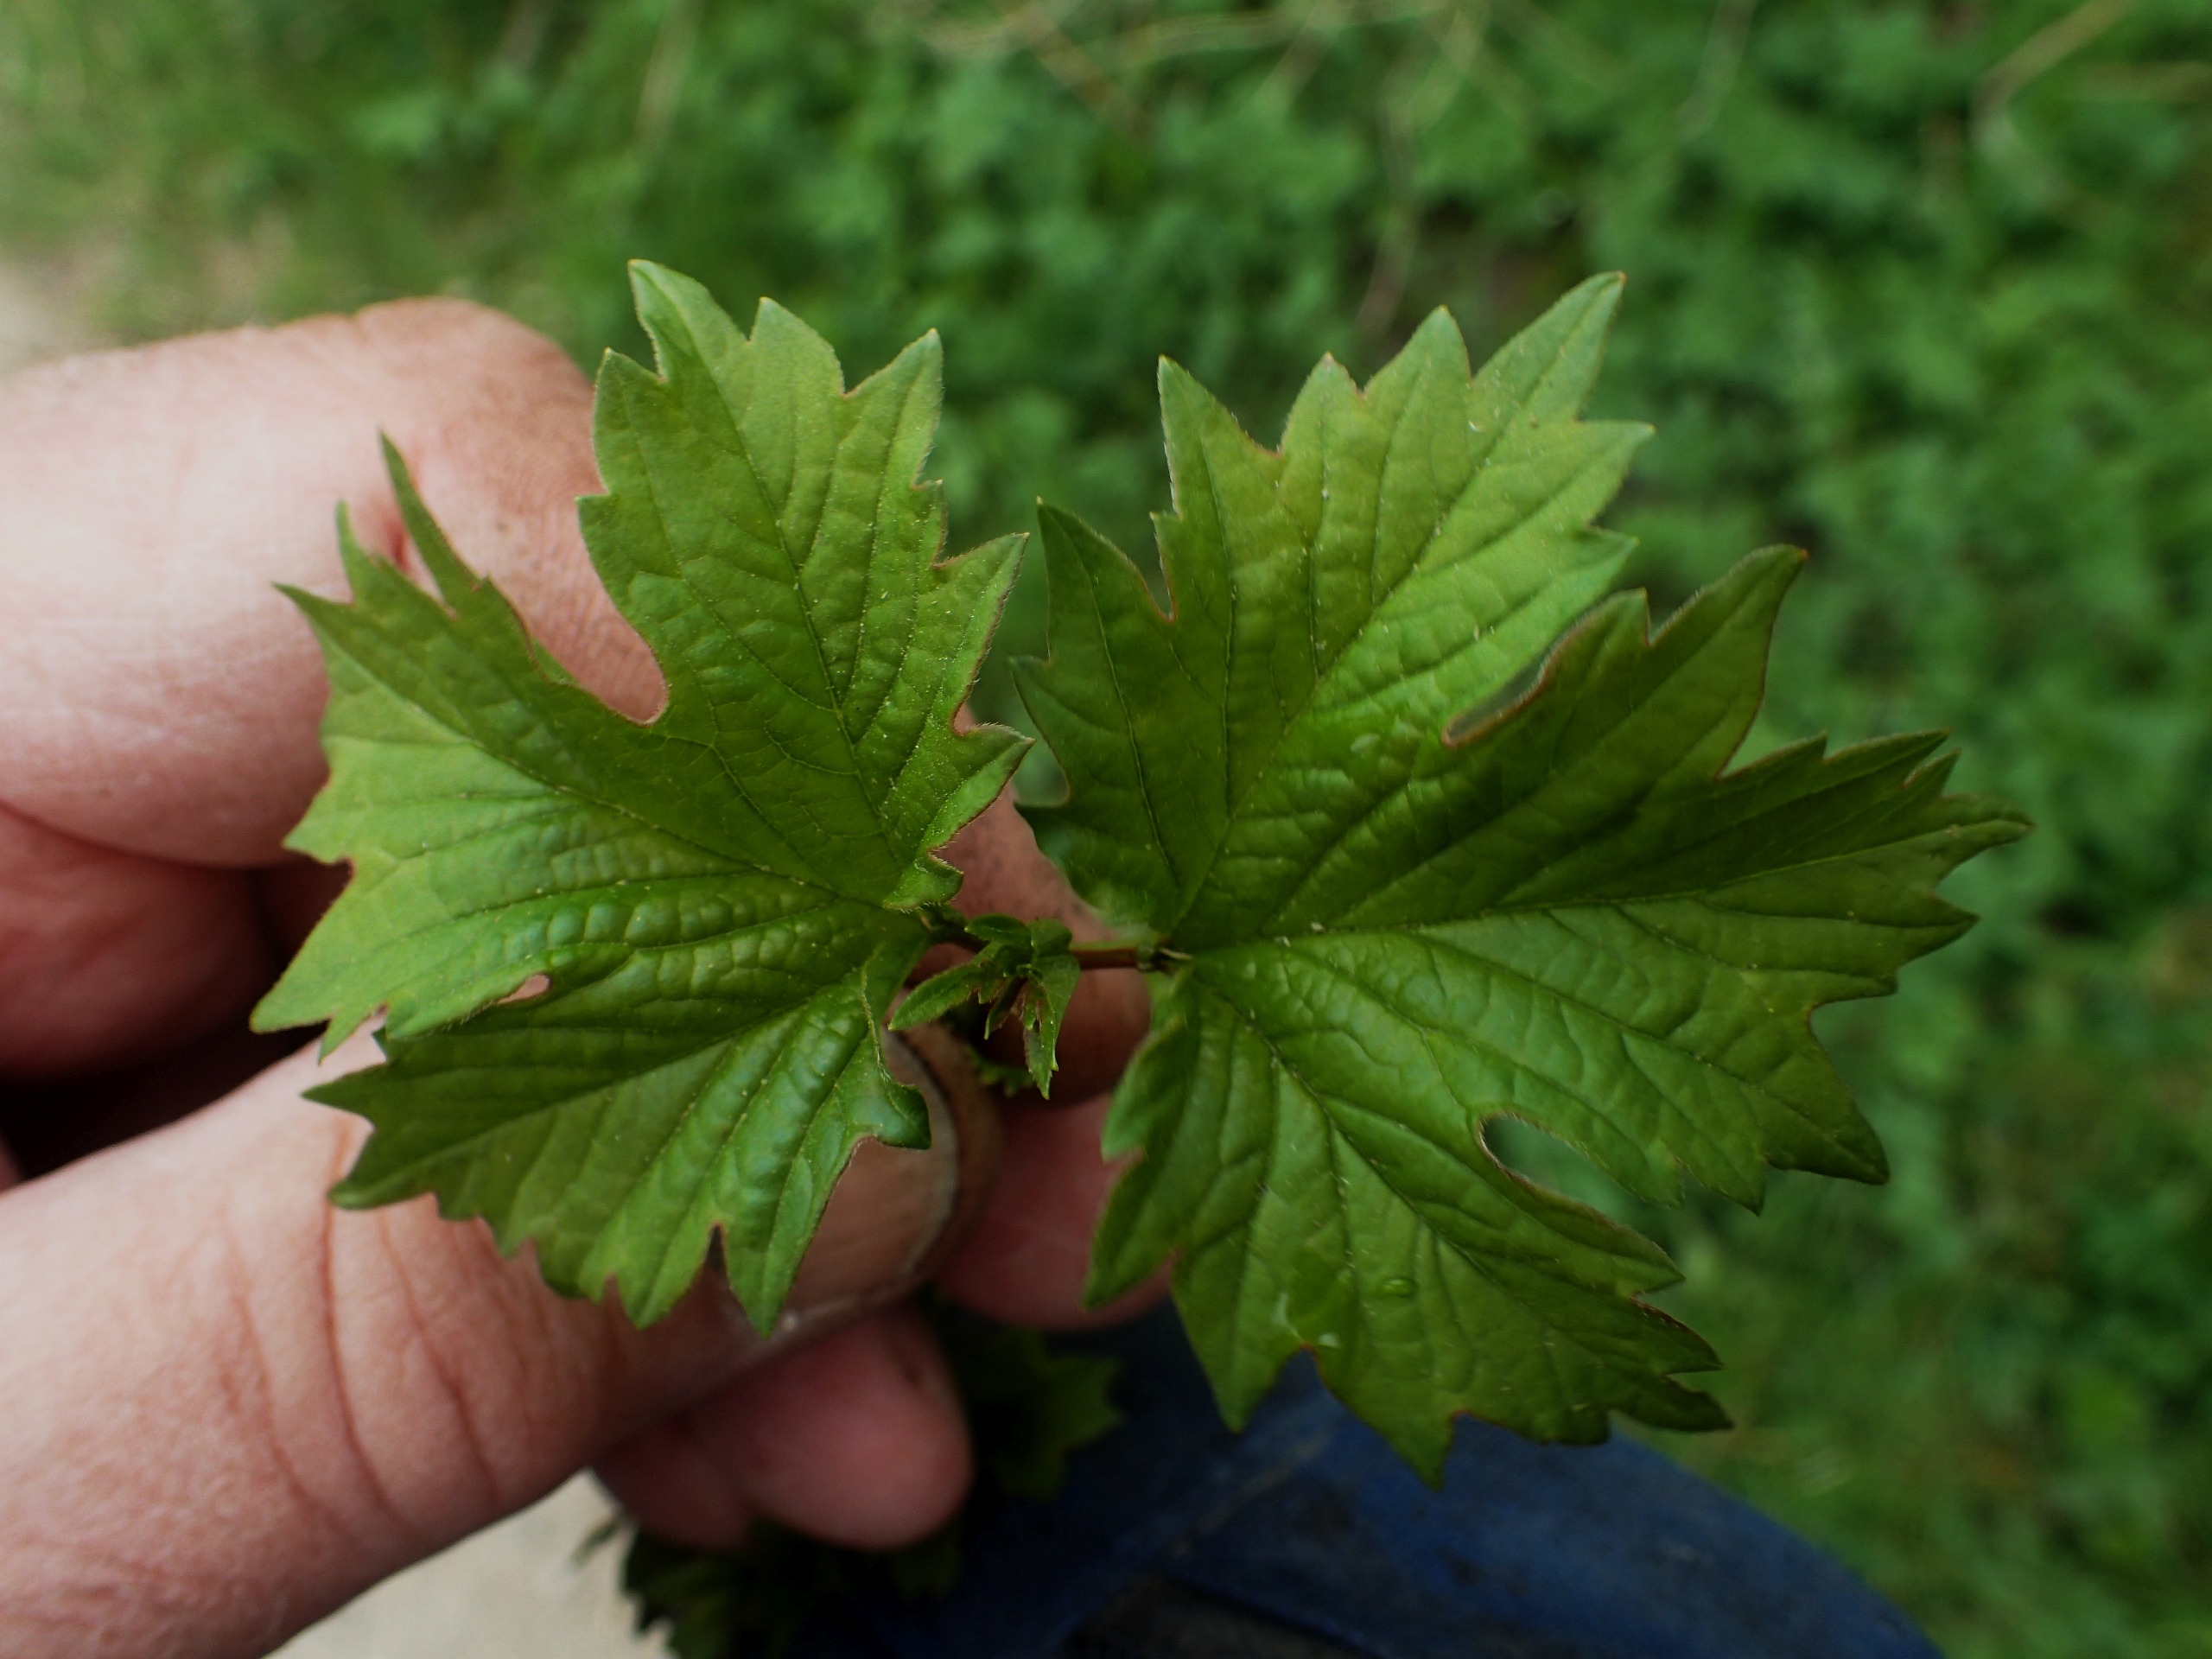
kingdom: Plantae
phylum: Tracheophyta
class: Magnoliopsida
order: Dipsacales
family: Viburnaceae
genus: Viburnum
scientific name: Viburnum opulus
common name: Kvalkved
